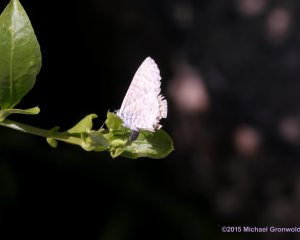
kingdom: Animalia
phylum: Arthropoda
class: Insecta
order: Lepidoptera
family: Lycaenidae
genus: Leptotes
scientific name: Leptotes marina
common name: Marine Blue
